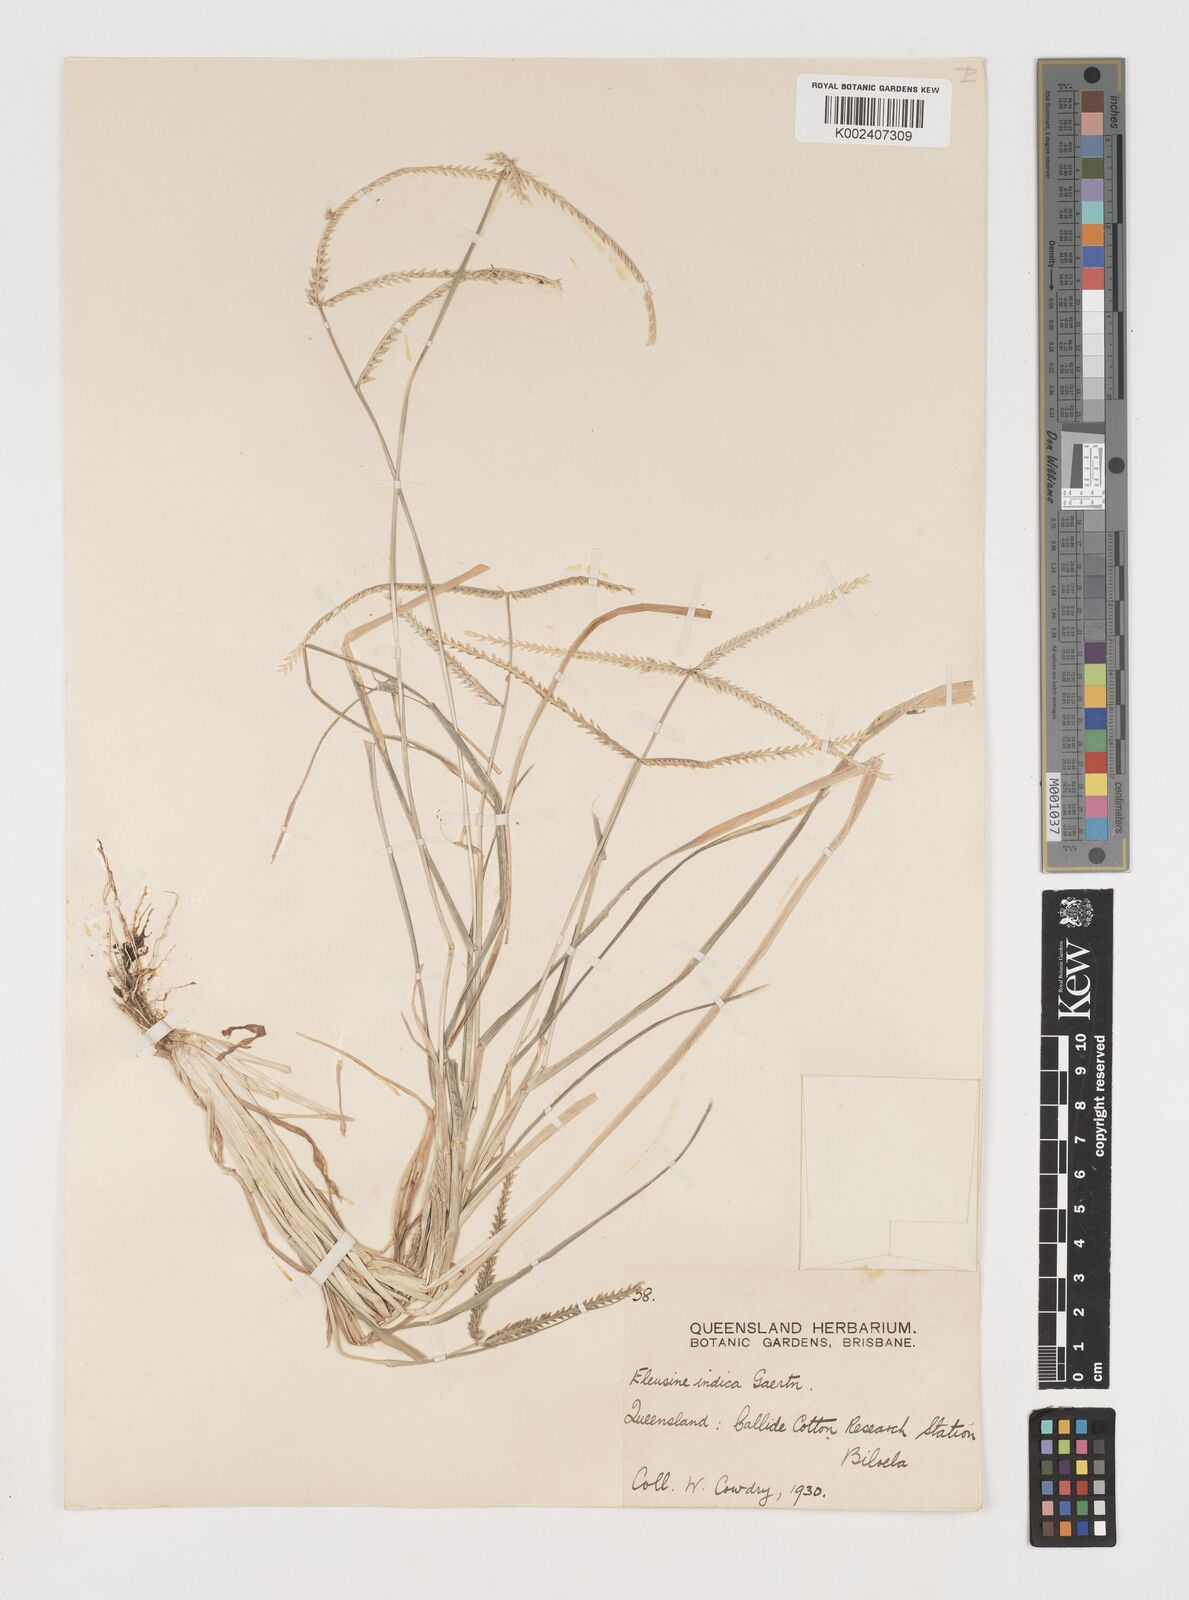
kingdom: Plantae
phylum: Tracheophyta
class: Liliopsida
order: Poales
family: Poaceae
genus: Eleusine
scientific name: Eleusine indica
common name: Yard-grass
